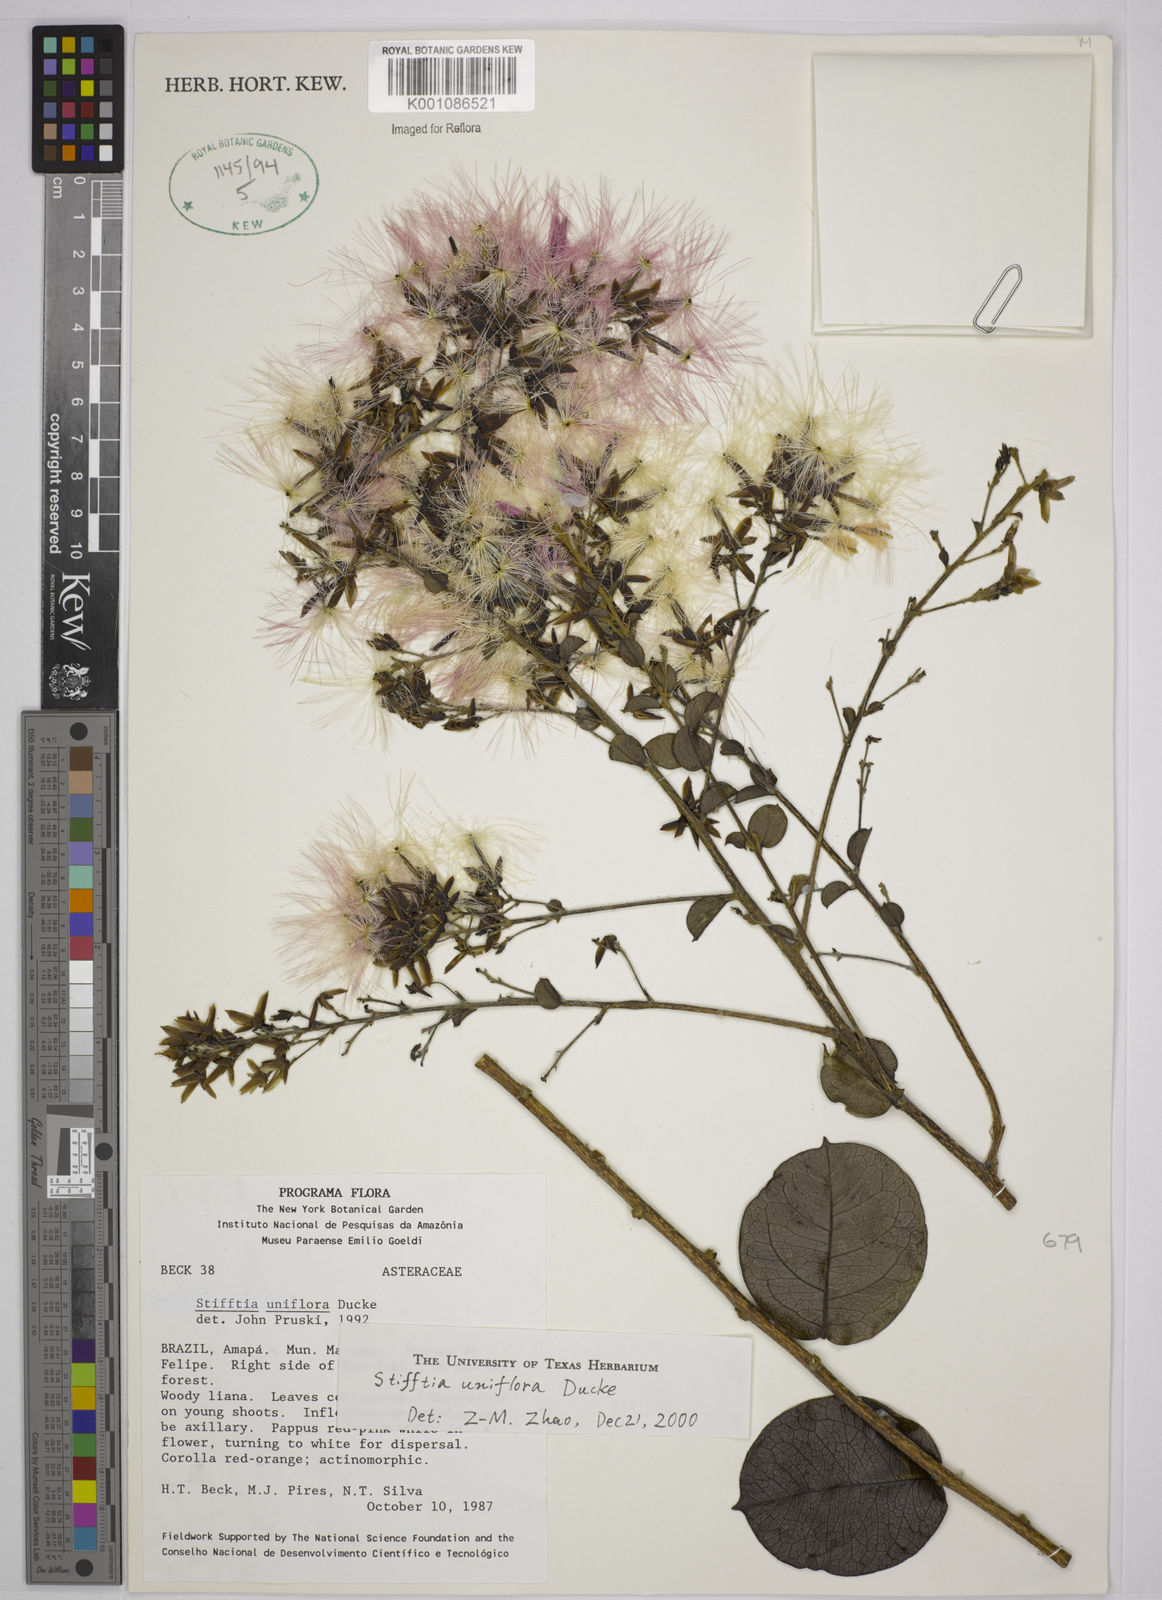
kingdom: Plantae
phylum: Tracheophyta
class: Magnoliopsida
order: Asterales
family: Asteraceae
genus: Stifftia
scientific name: Stifftia uniflora
